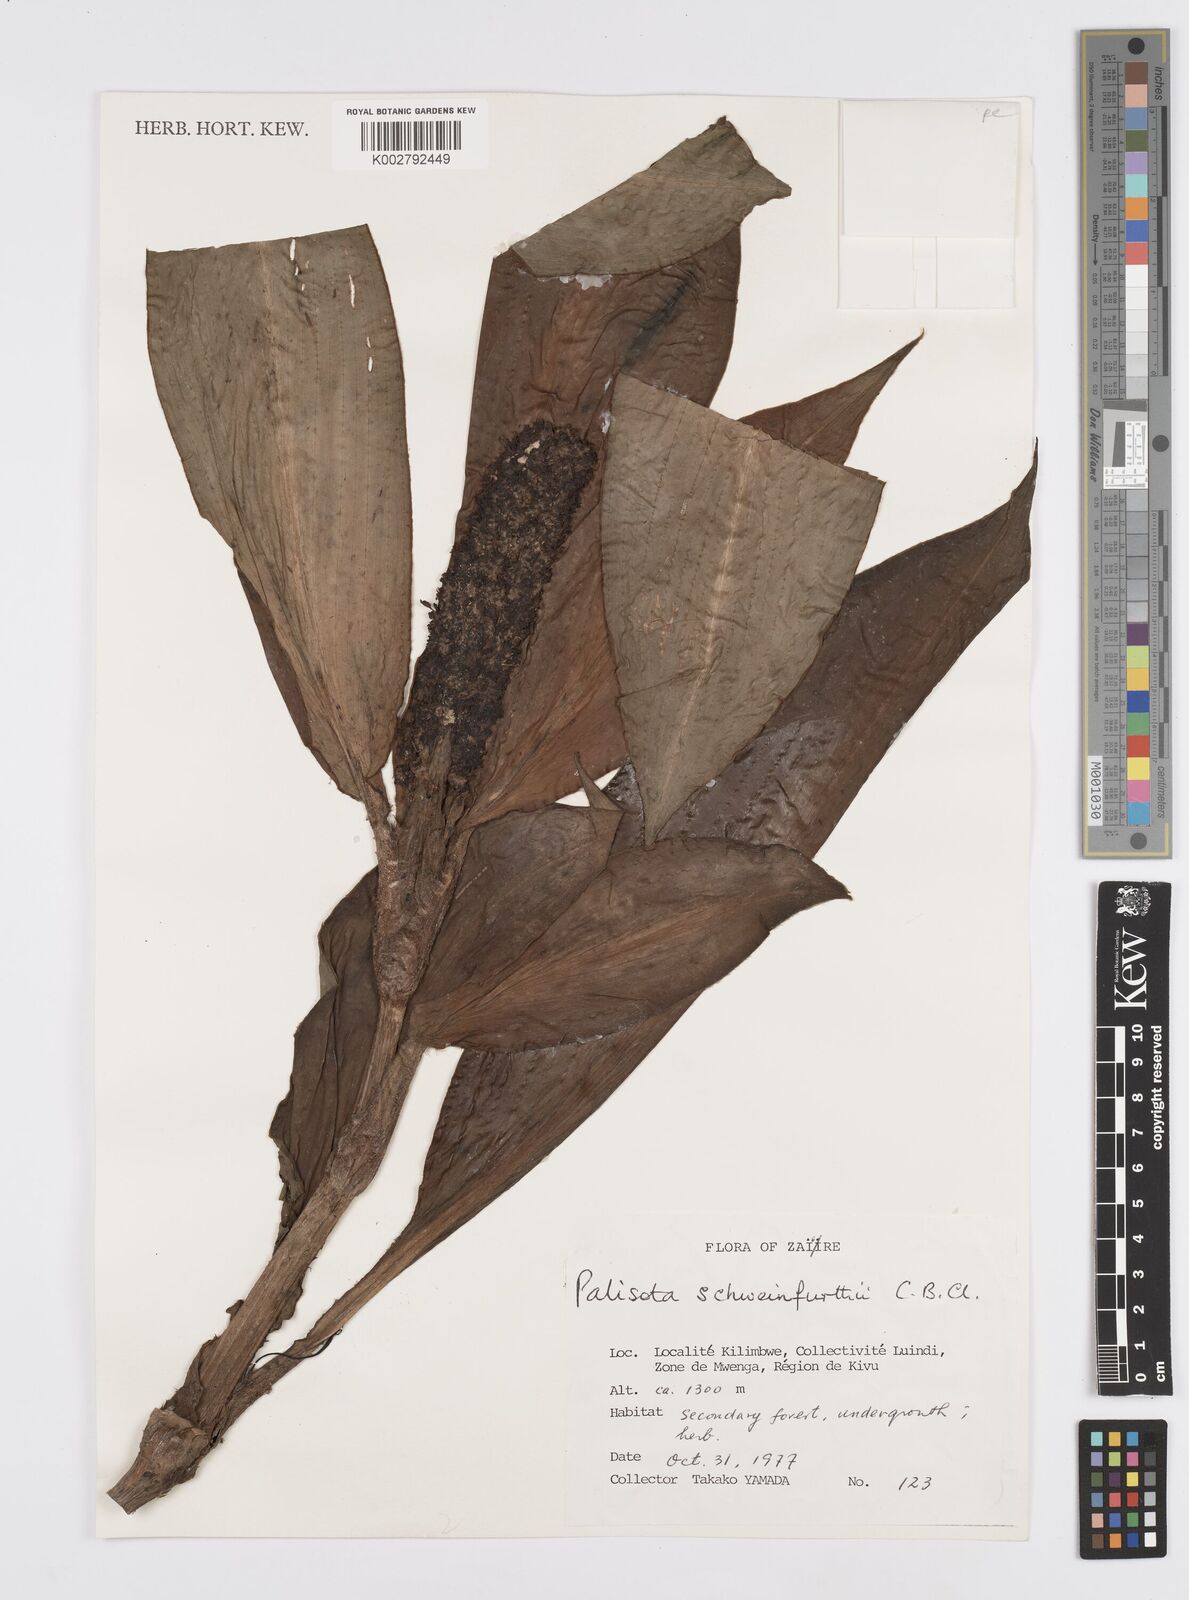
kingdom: Plantae
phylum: Tracheophyta
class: Liliopsida
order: Commelinales
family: Commelinaceae
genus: Palisota
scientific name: Palisota schweinfurthii
